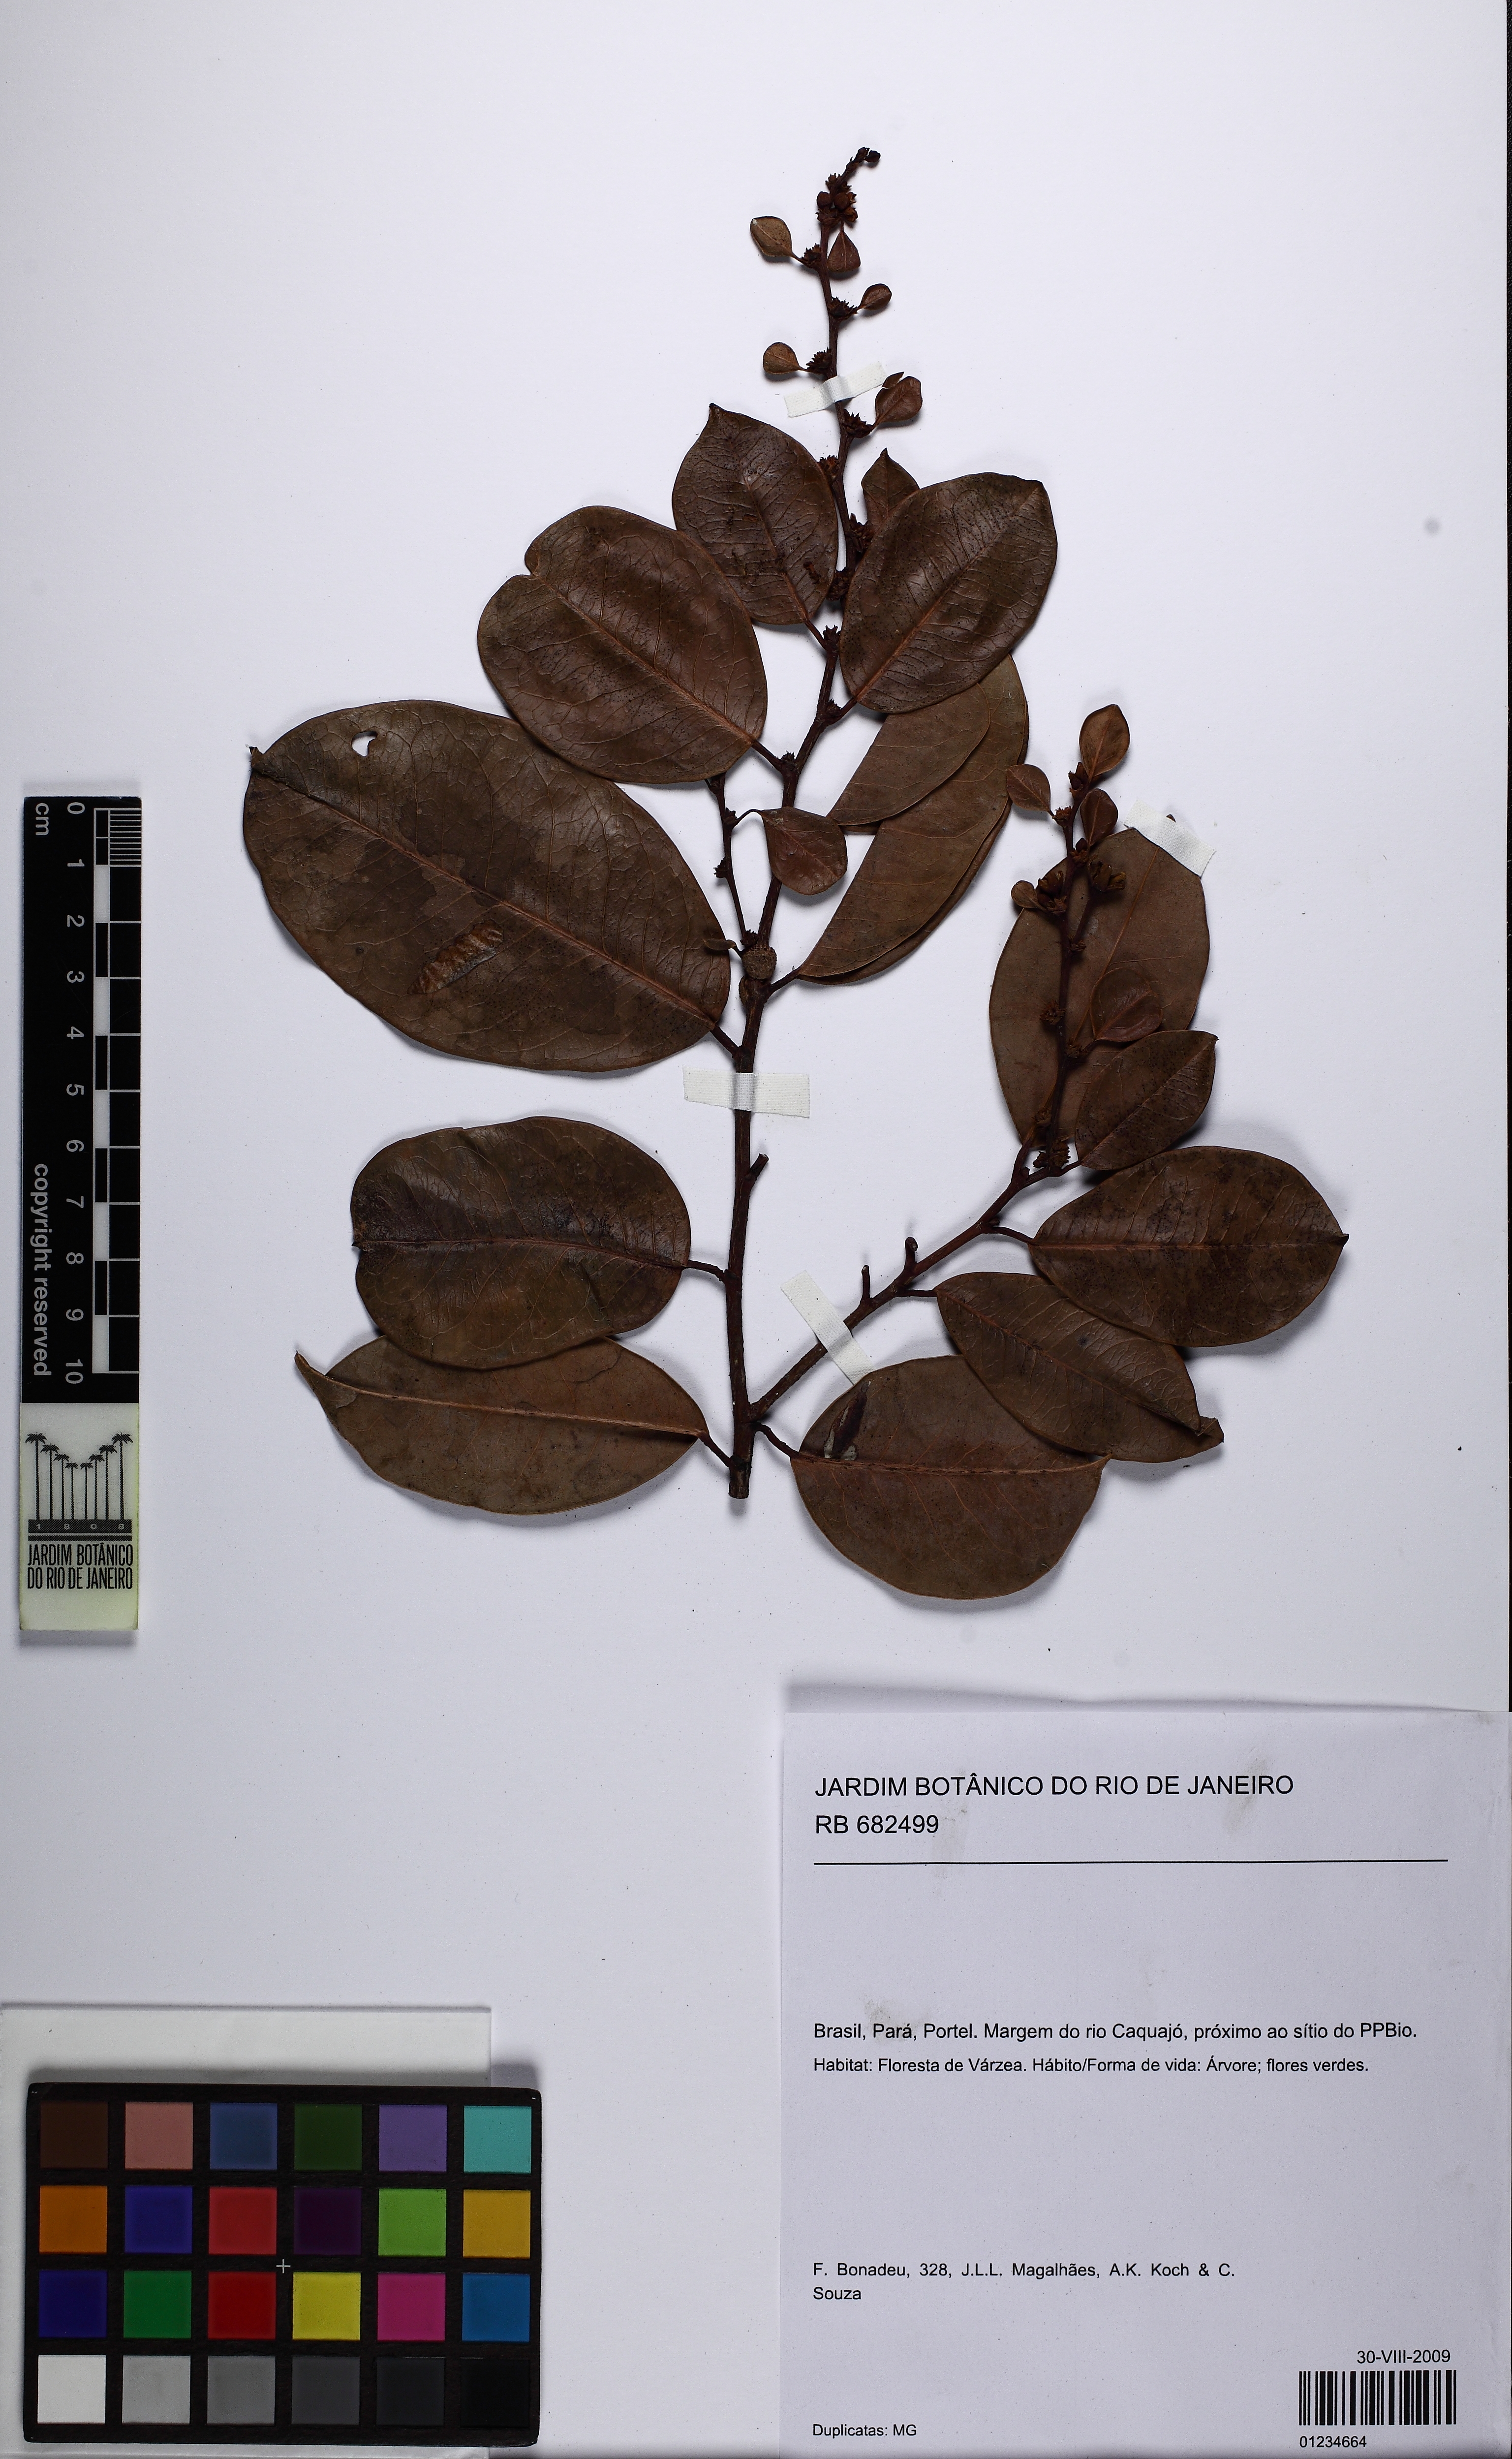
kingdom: Plantae
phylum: Tracheophyta
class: Magnoliopsida
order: Malpighiales
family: Phyllanthaceae
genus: Amanoa
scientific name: Amanoa guianensis
